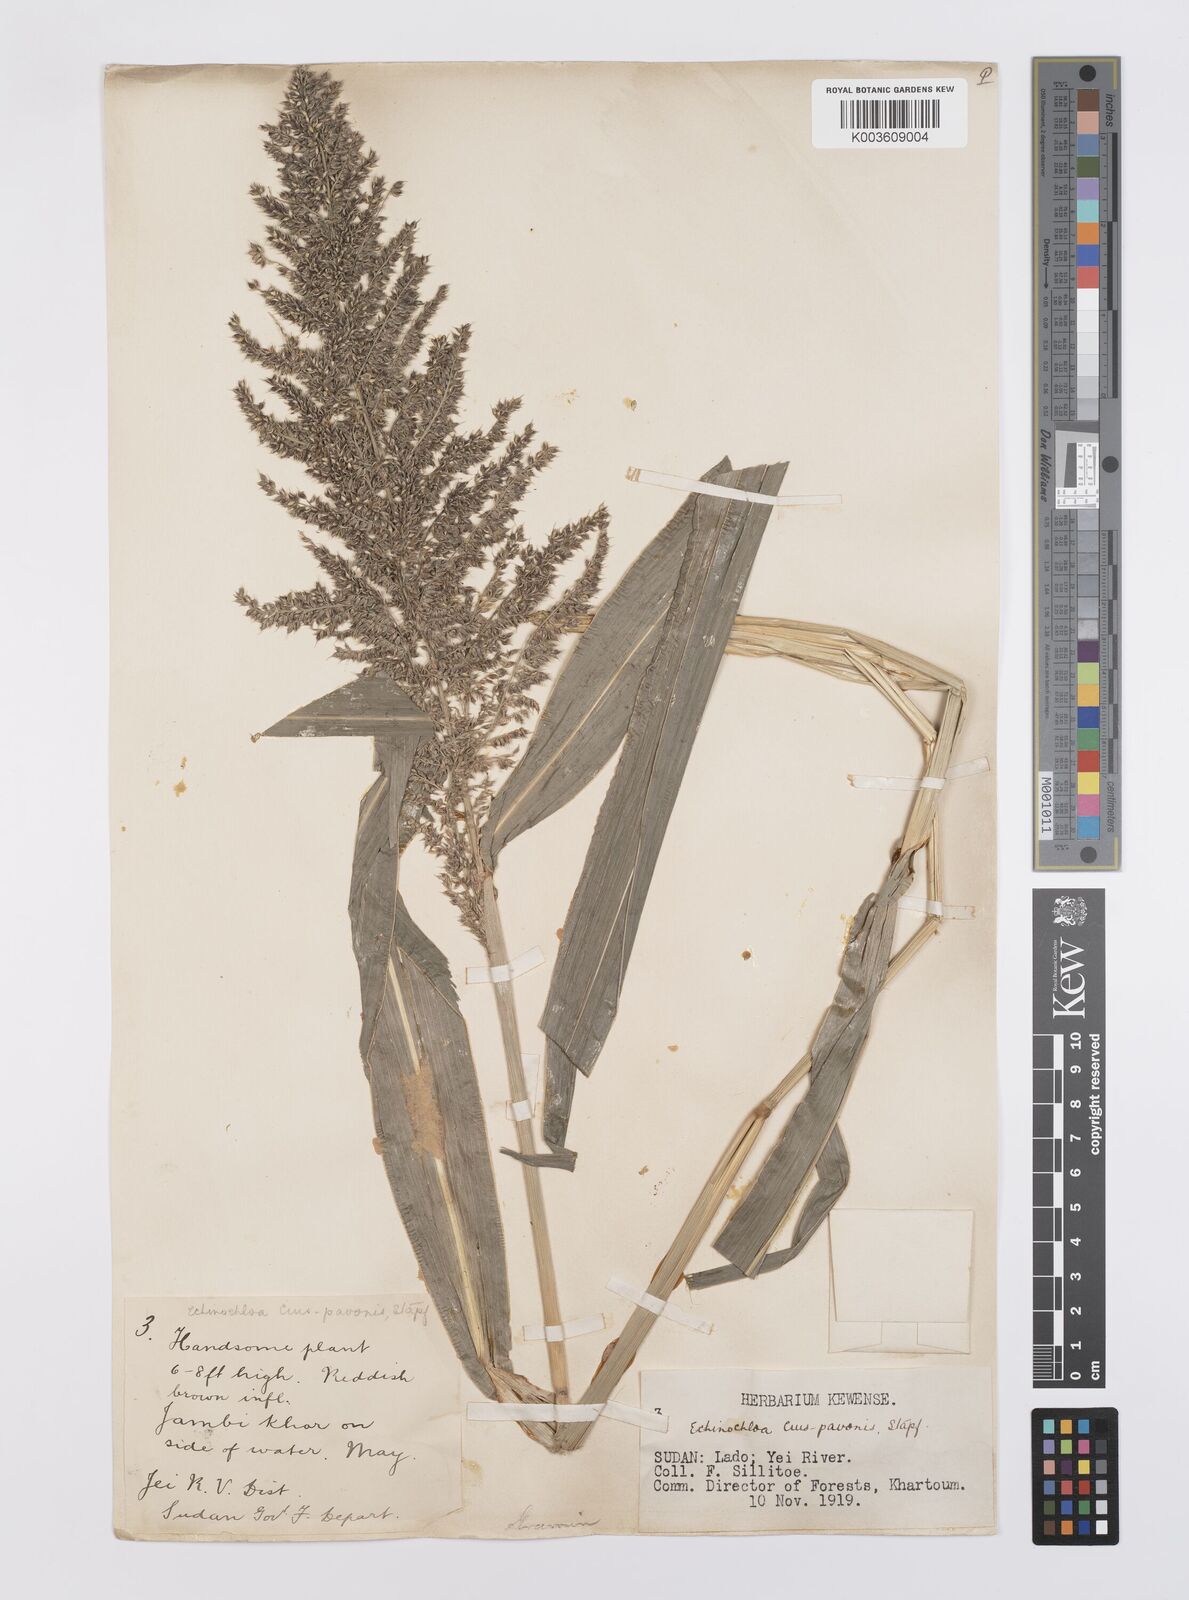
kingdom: Plantae
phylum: Tracheophyta
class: Liliopsida
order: Poales
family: Poaceae
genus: Echinochloa
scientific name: Echinochloa crus-pavonis
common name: Gulf cockspur grass
